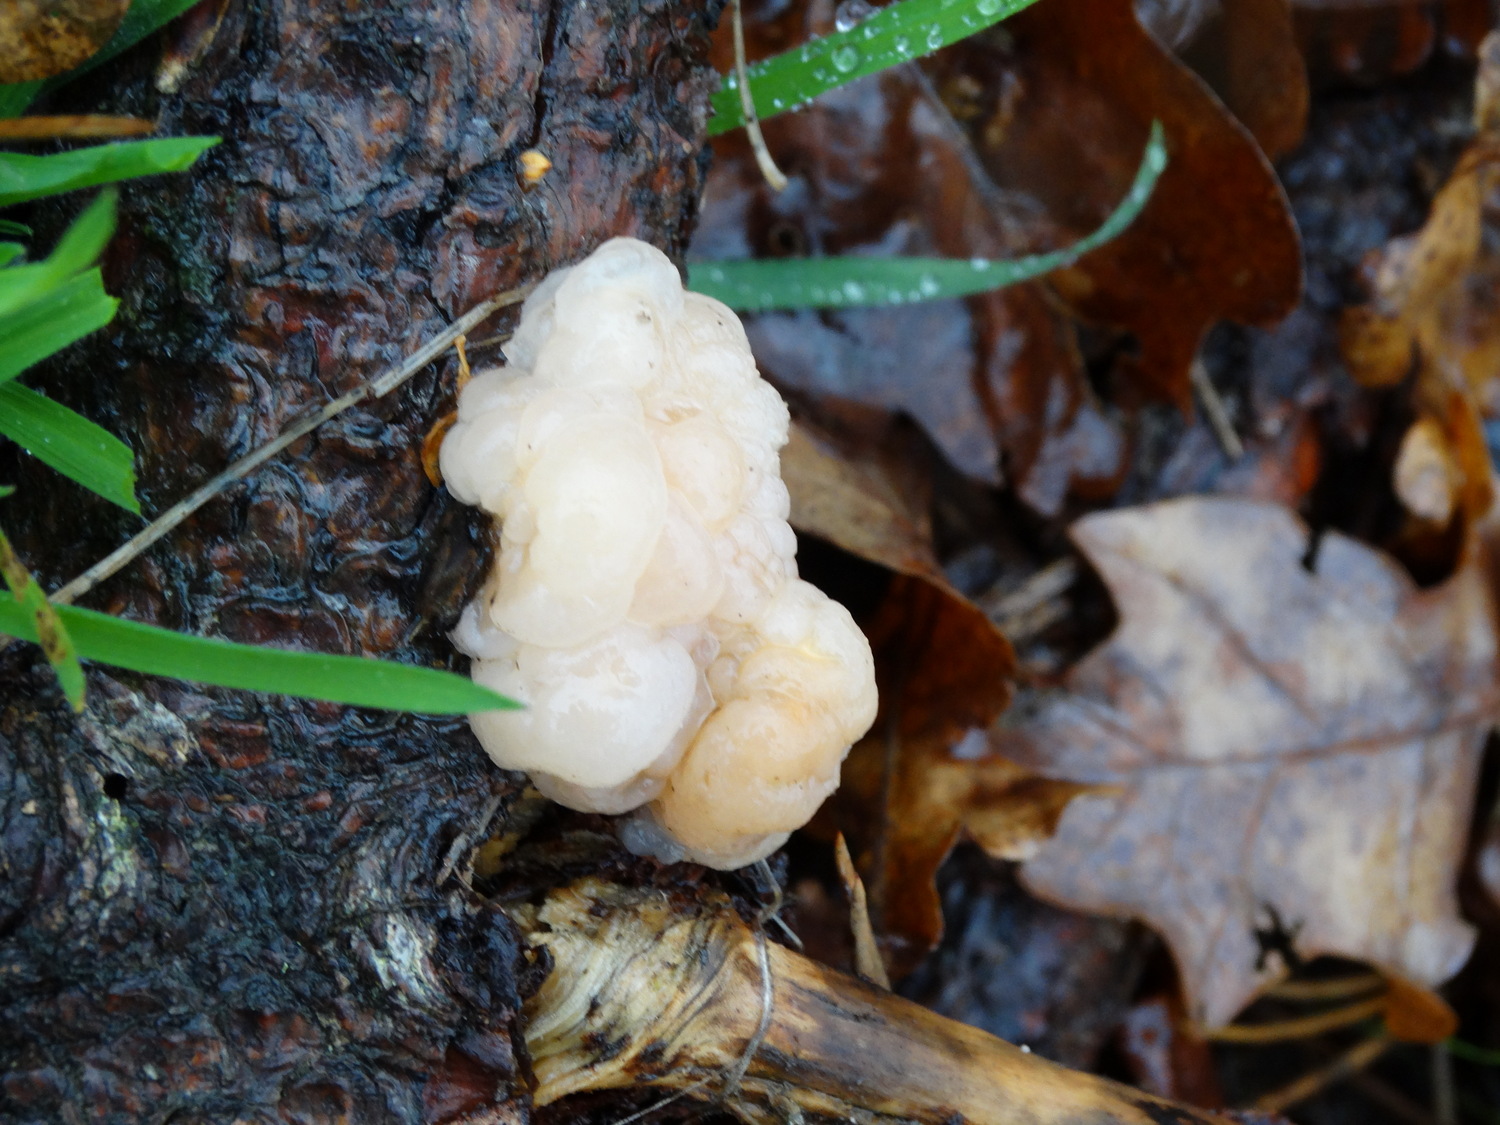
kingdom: Fungi
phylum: Basidiomycota
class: Tremellomycetes
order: Tremellales
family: Naemateliaceae
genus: Naematelia
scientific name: Naematelia encephala
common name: fyrre-bævresvamp
